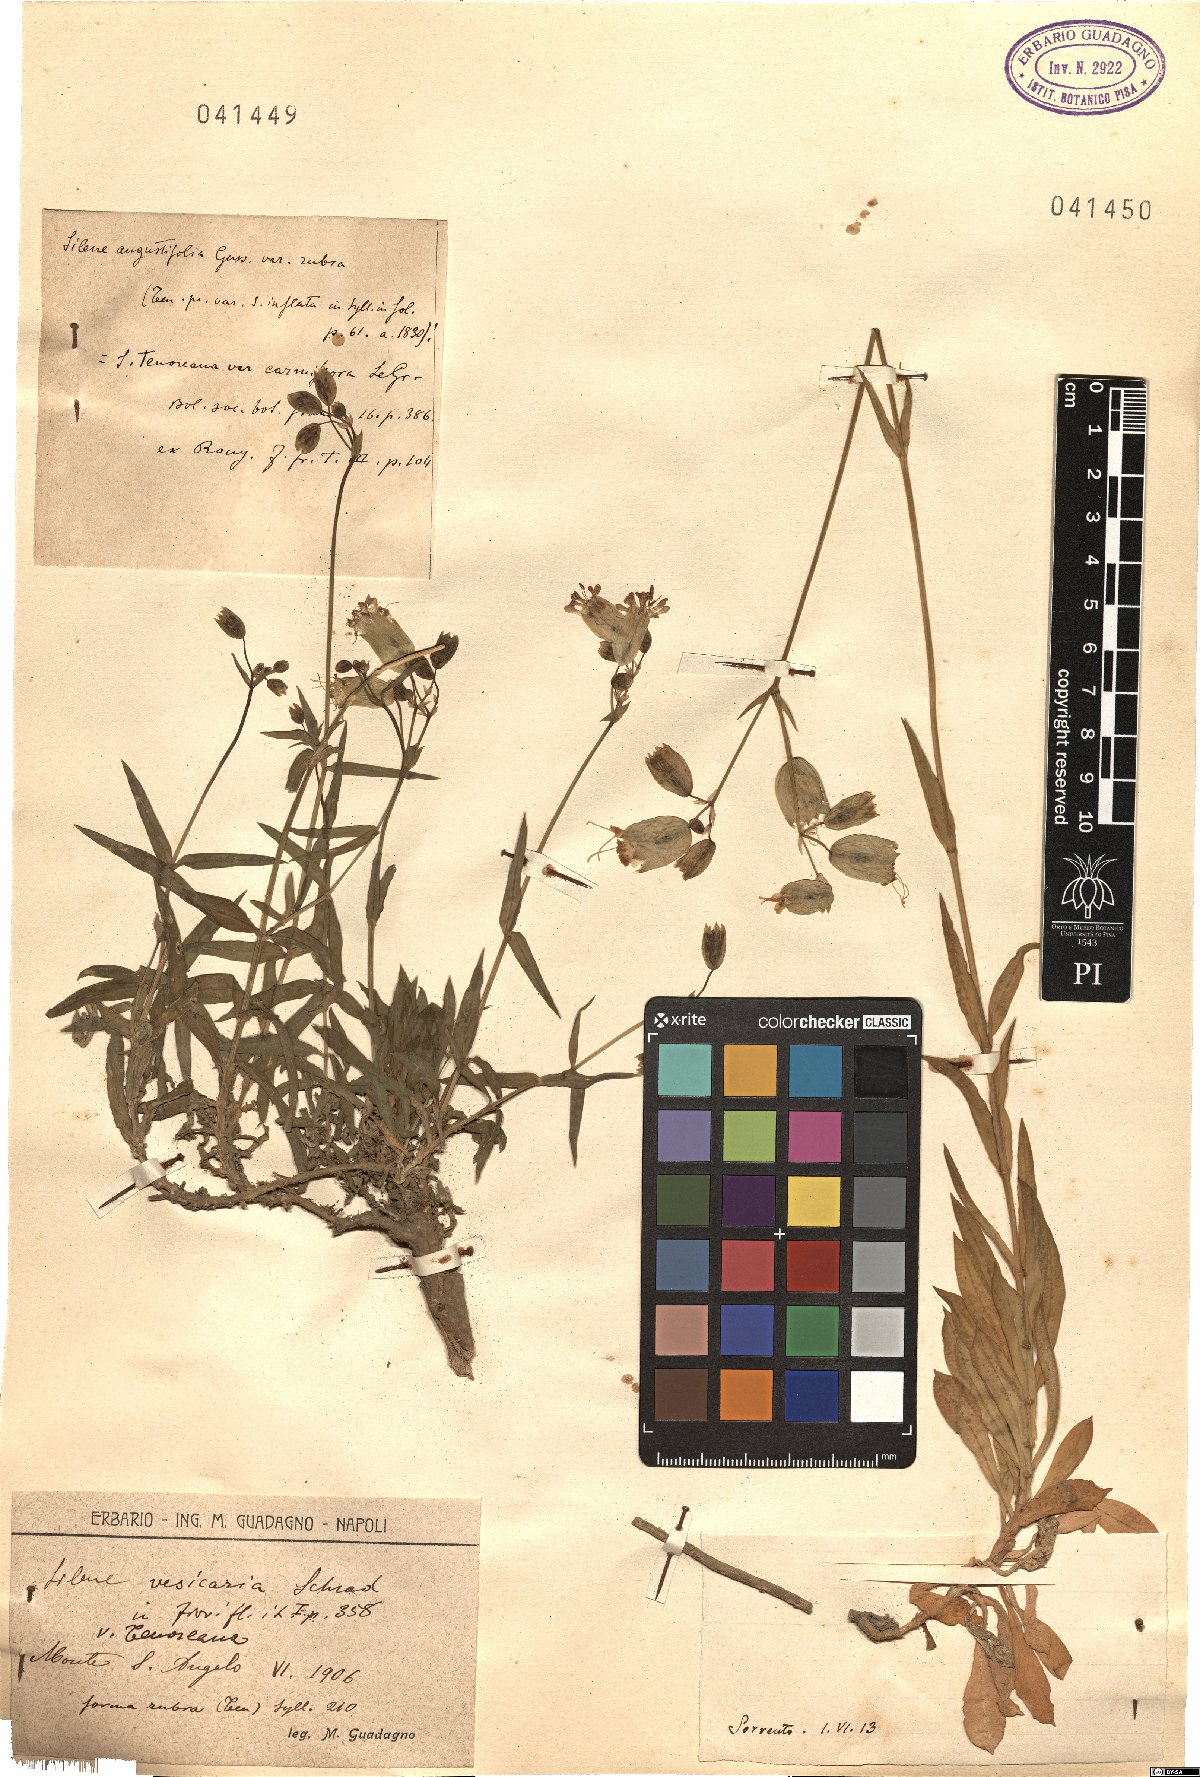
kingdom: Plantae
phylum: Tracheophyta
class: Magnoliopsida
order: Caryophyllales
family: Caryophyllaceae
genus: Silene
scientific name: Silene vulgaris
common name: Bladder campion
